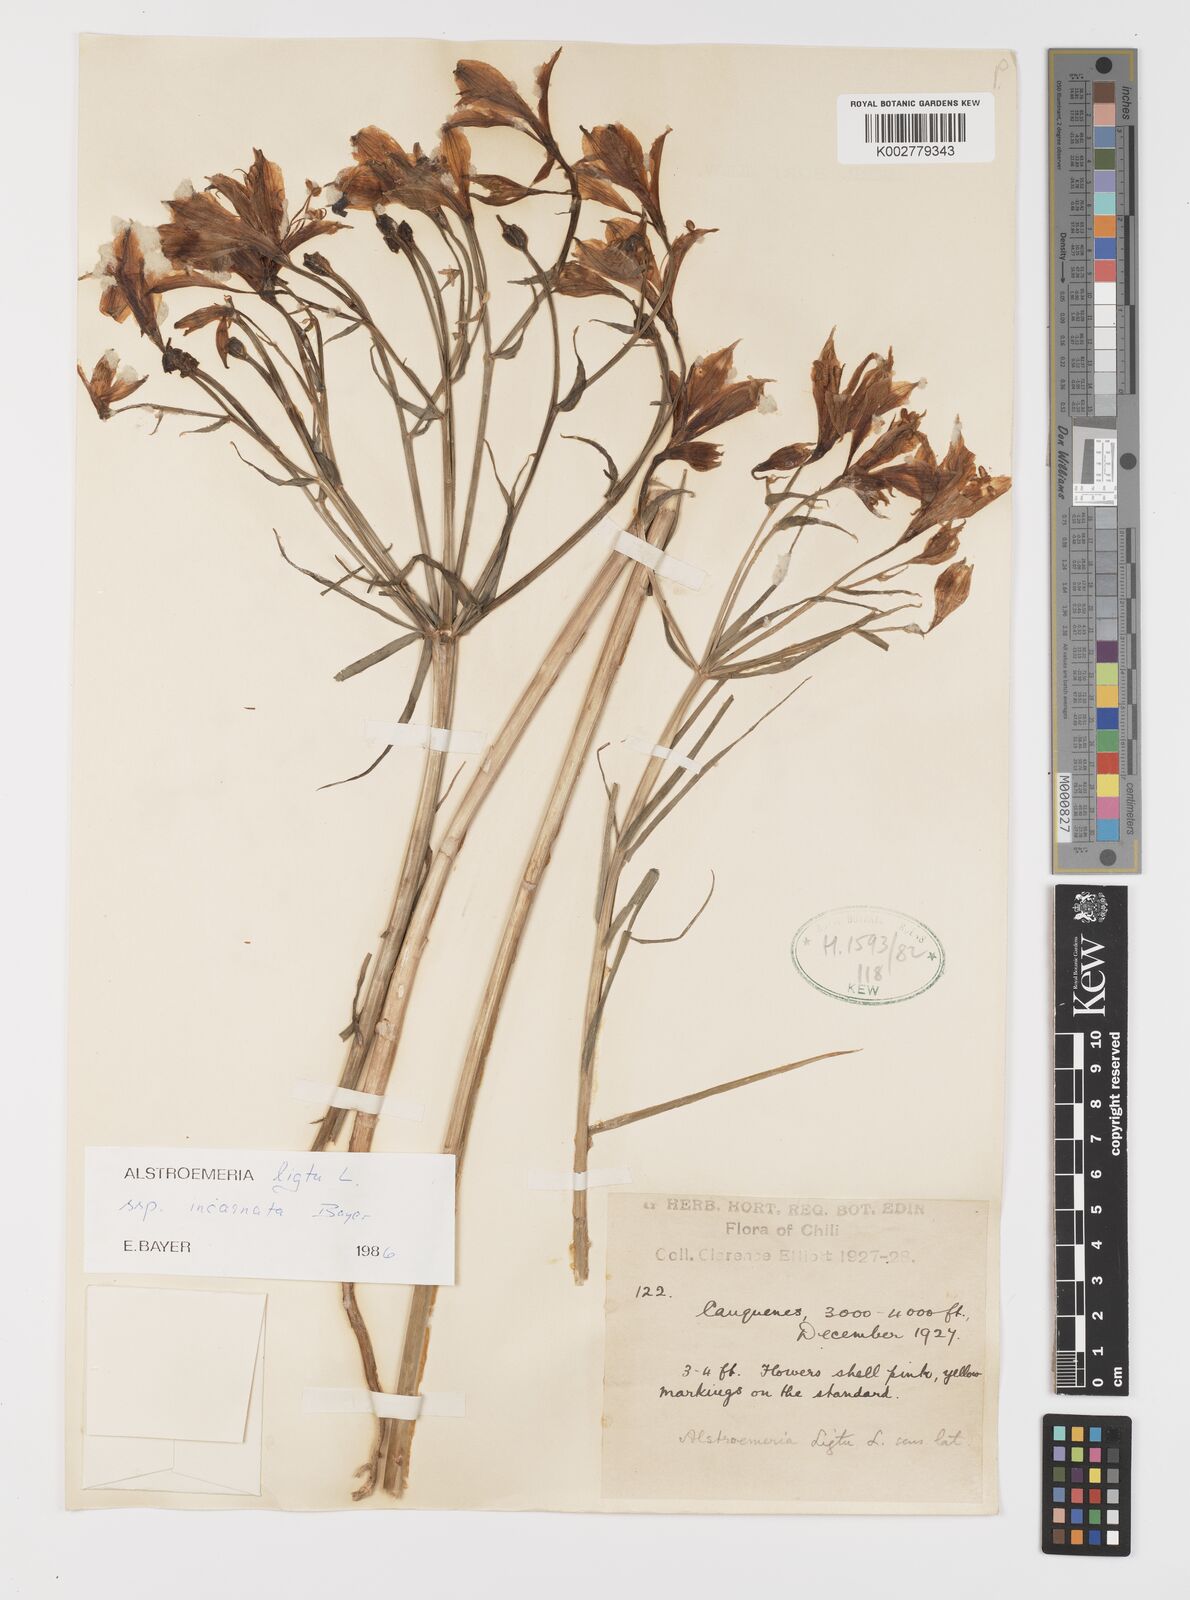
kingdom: Plantae
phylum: Tracheophyta
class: Liliopsida
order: Liliales
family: Alstroemeriaceae
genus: Alstroemeria
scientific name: Alstroemeria ligtu
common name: St. martin's-flower
